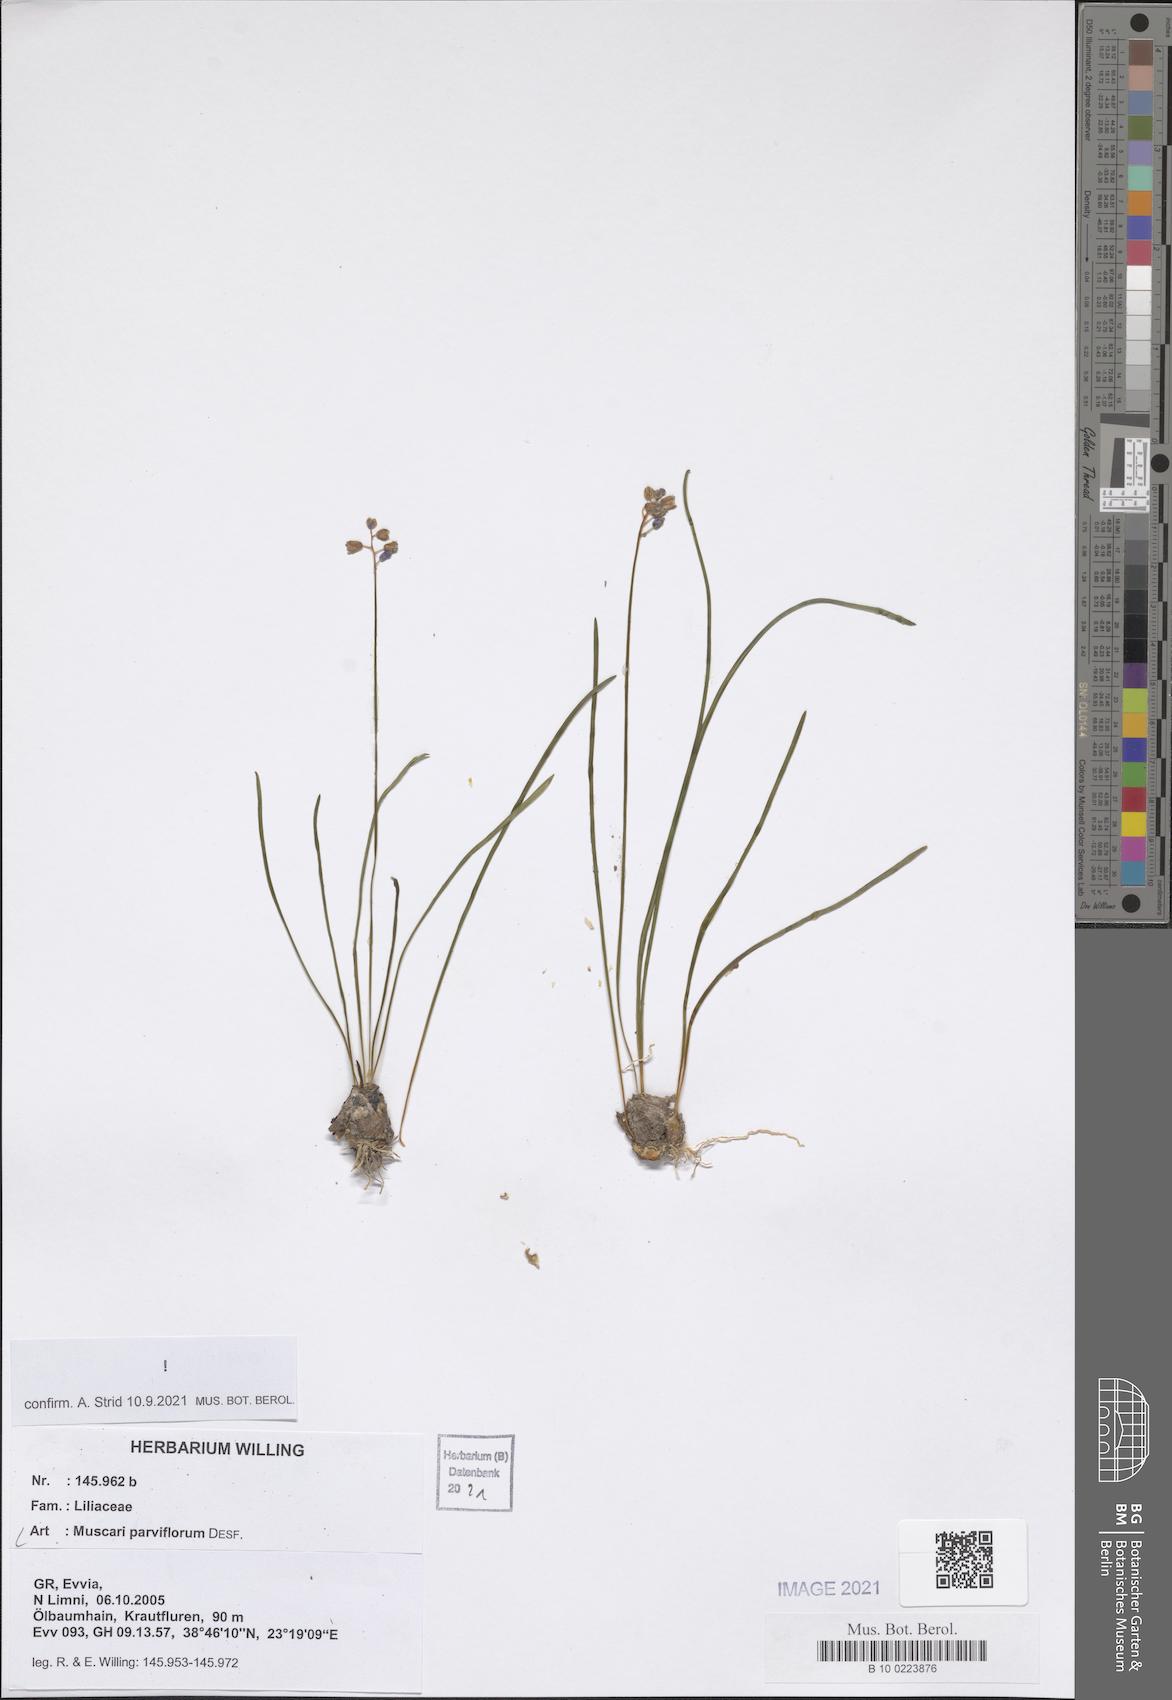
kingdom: Plantae
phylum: Tracheophyta
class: Liliopsida
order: Asparagales
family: Asparagaceae
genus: Muscari
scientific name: Muscari parviflorum
